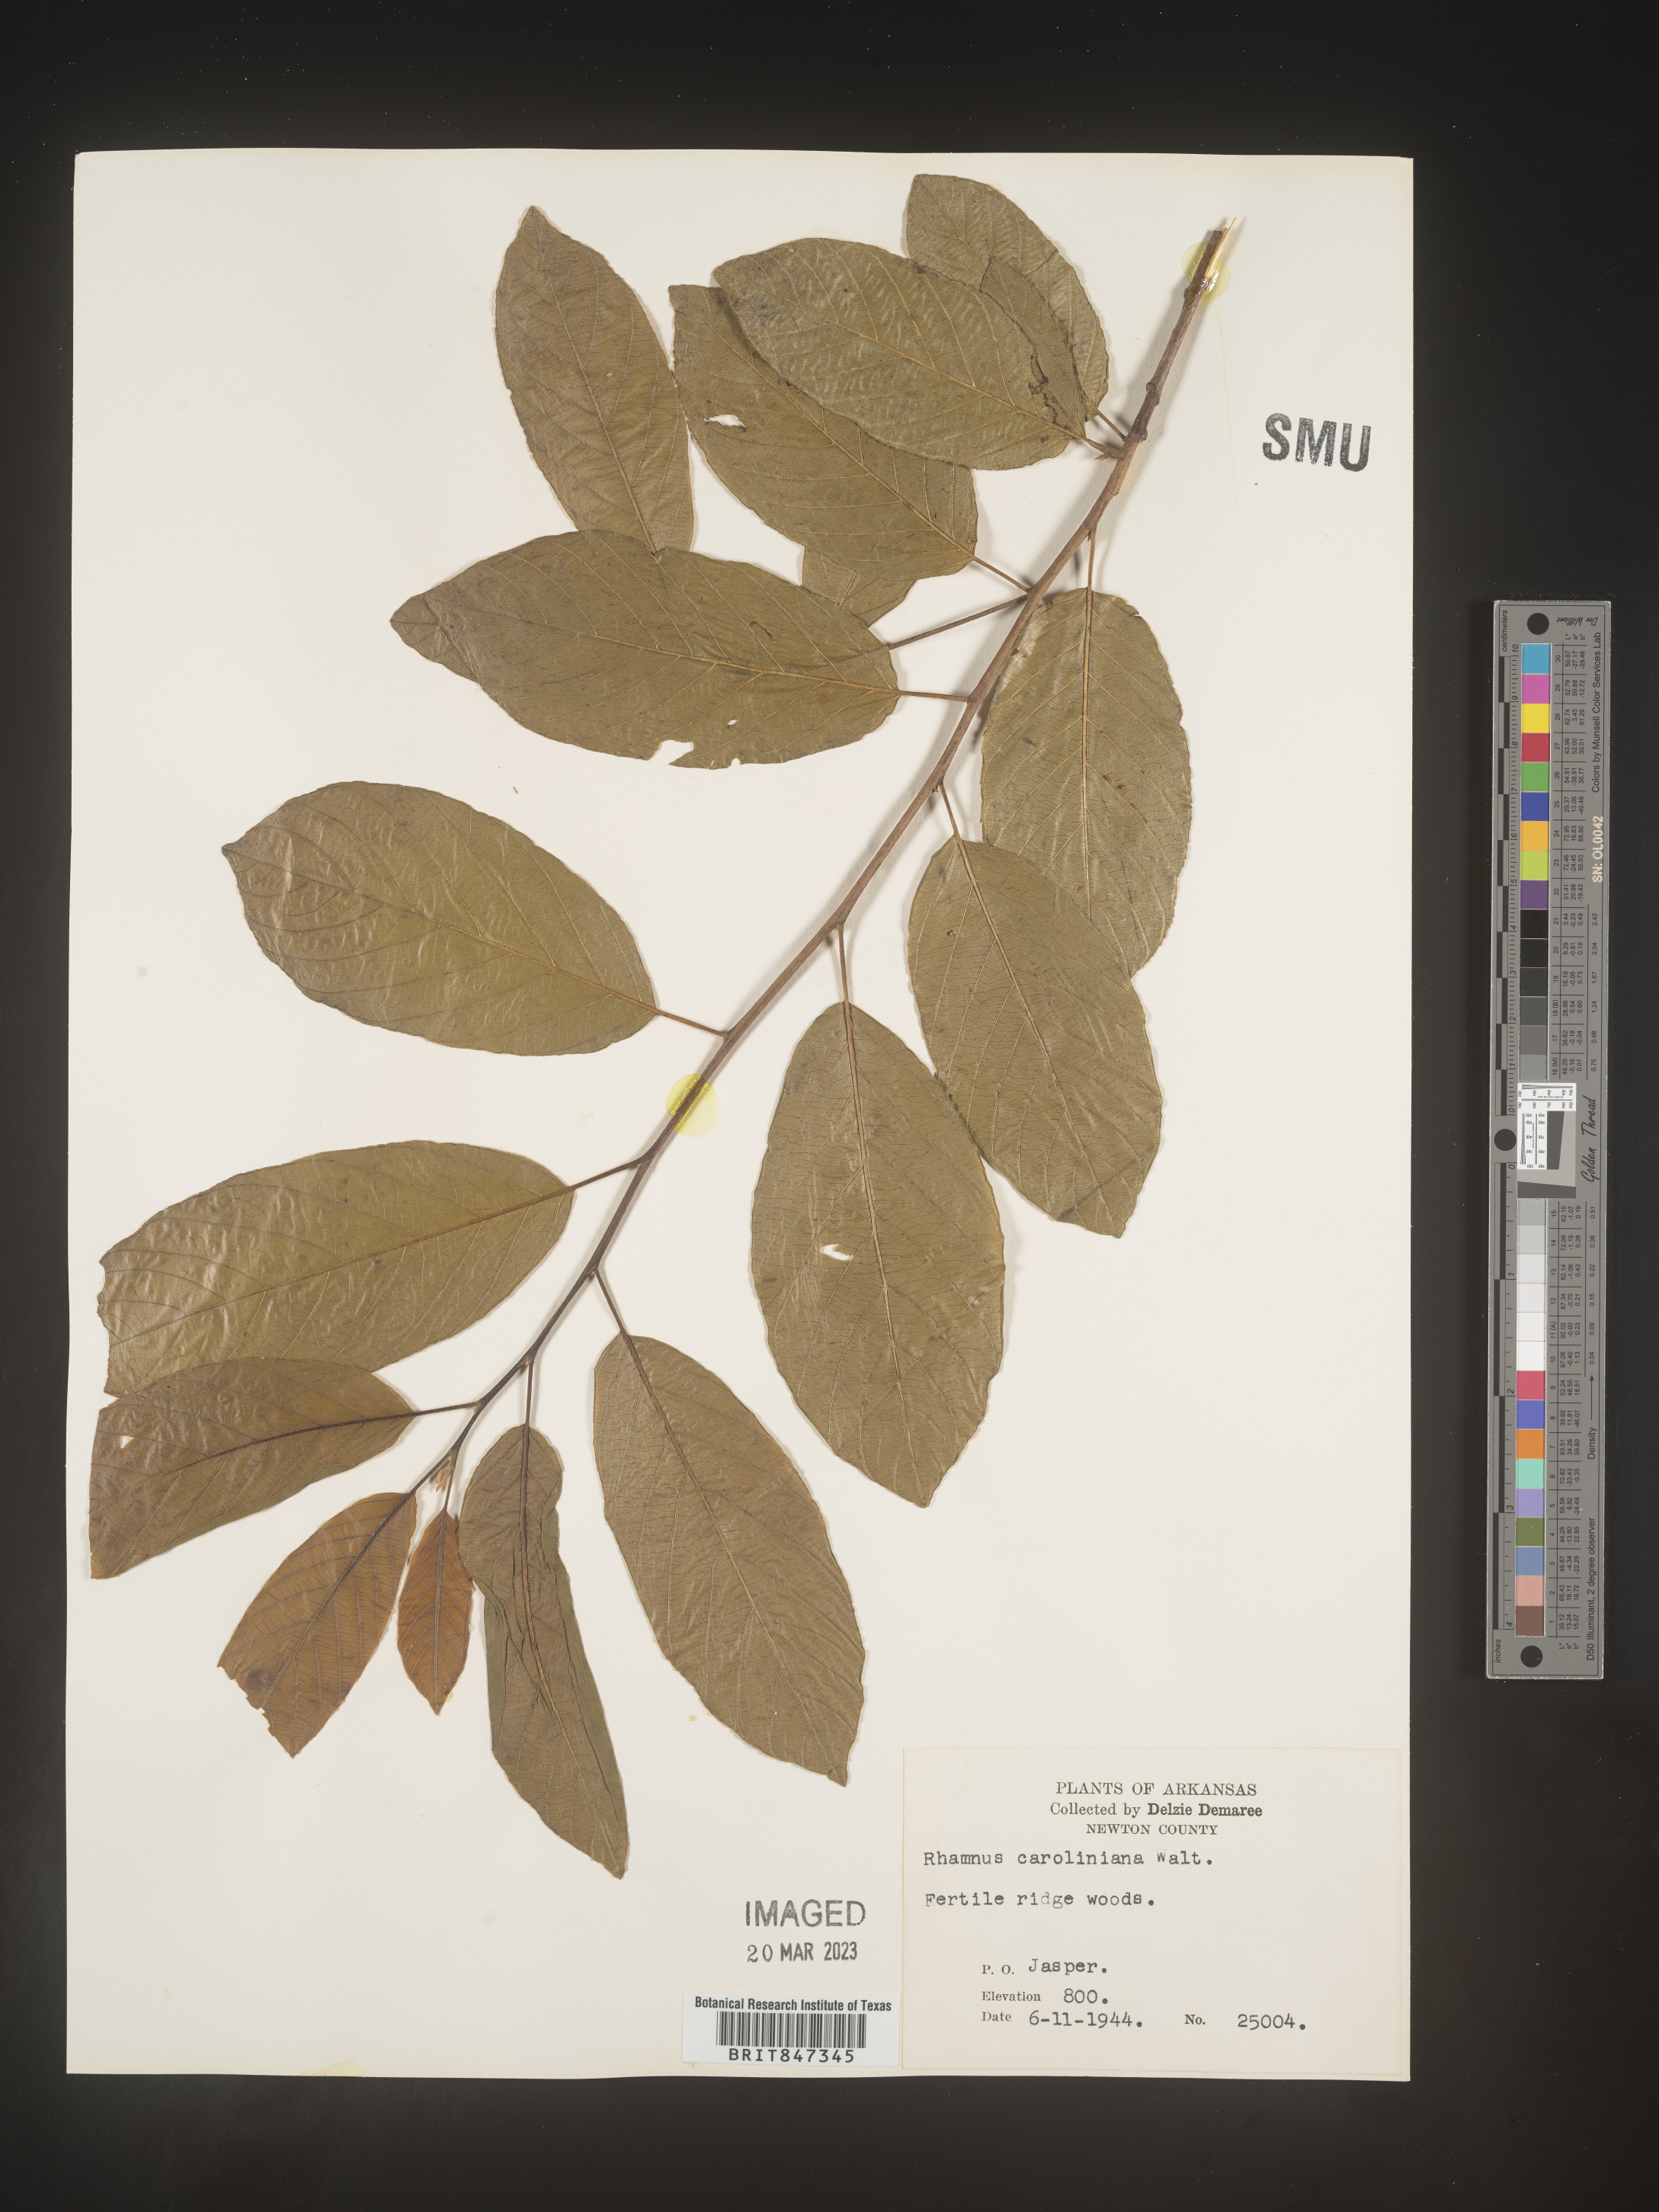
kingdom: Plantae
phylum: Tracheophyta
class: Magnoliopsida
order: Rosales
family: Rhamnaceae
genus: Frangula
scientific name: Frangula caroliniana
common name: Carolina buckthorn
